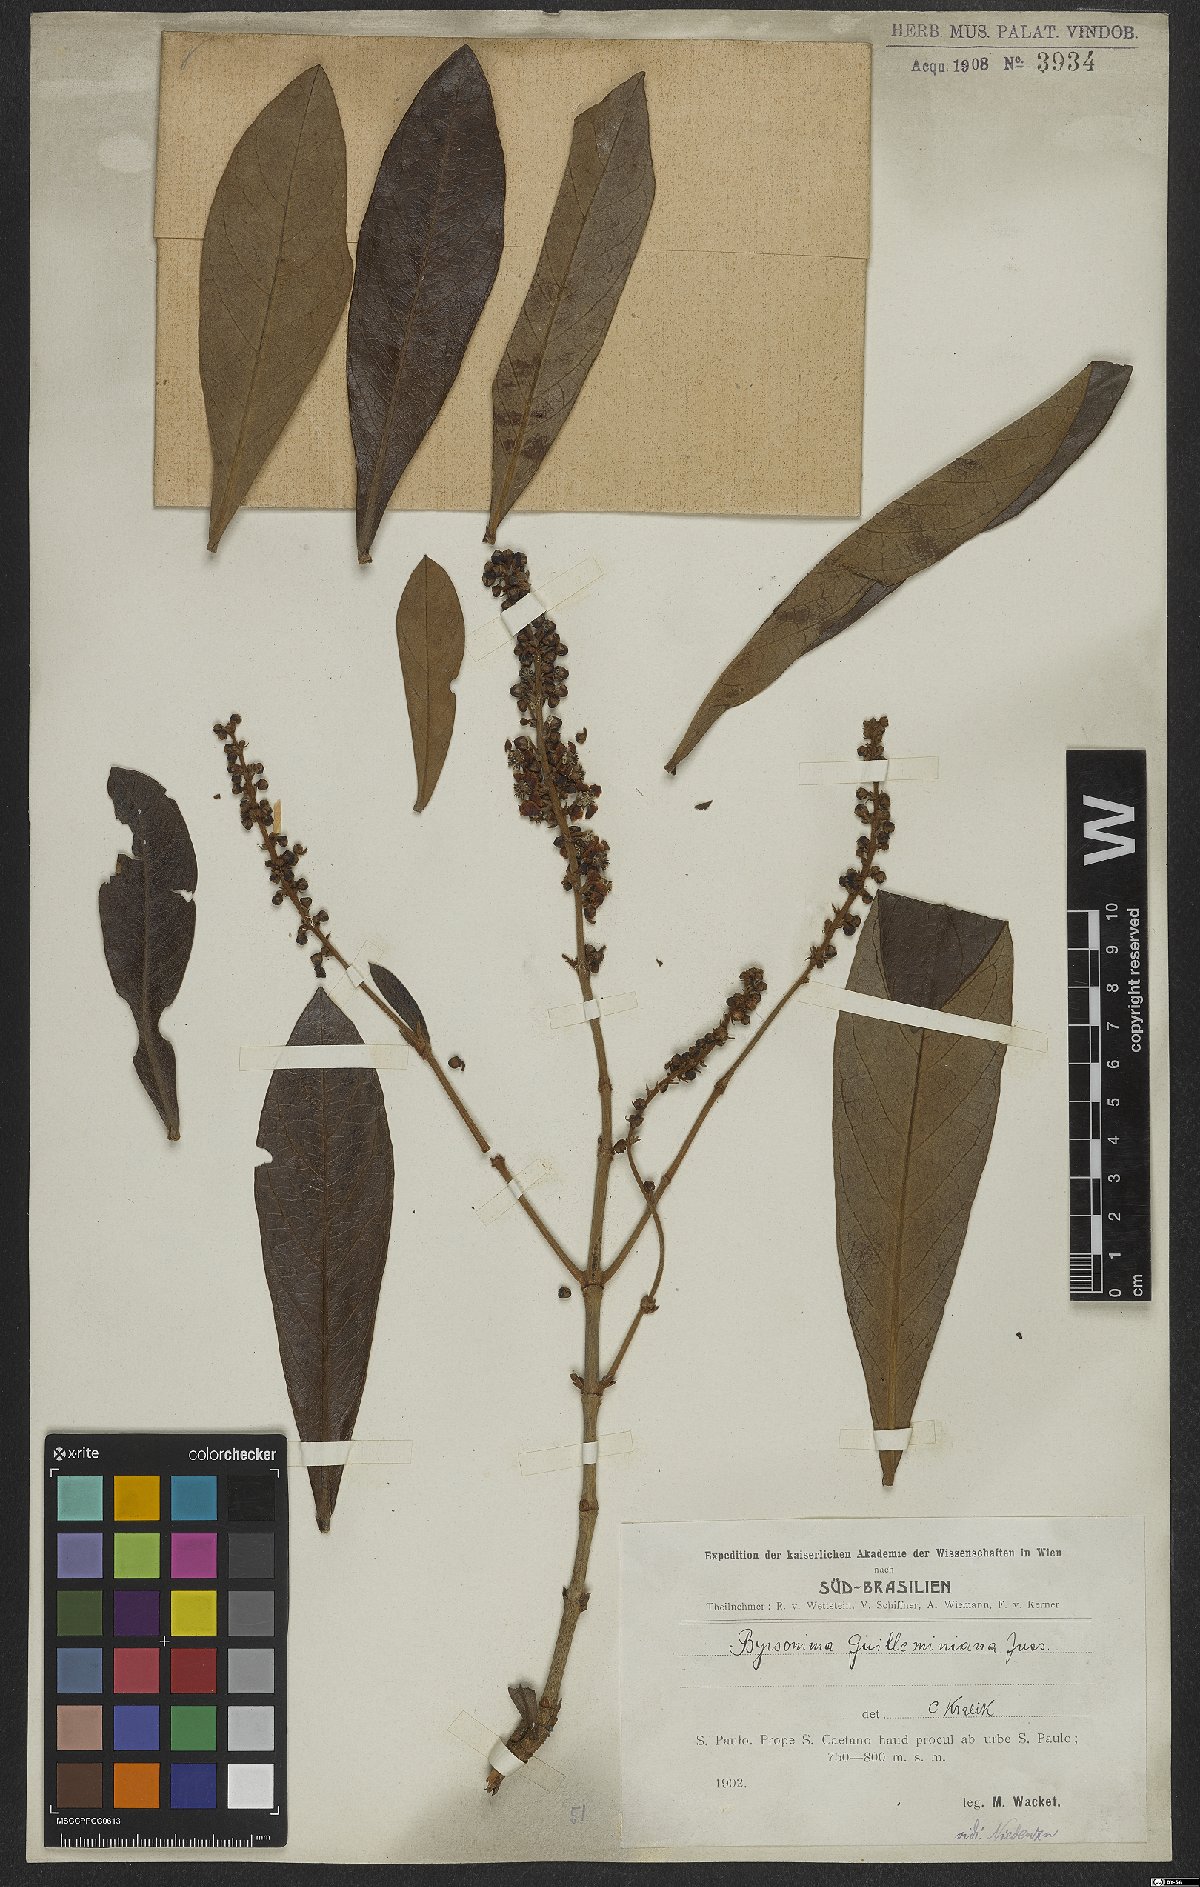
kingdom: Plantae
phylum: Tracheophyta
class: Magnoliopsida
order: Malpighiales
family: Malpighiaceae
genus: Byrsonima
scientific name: Byrsonima guilleminiana
